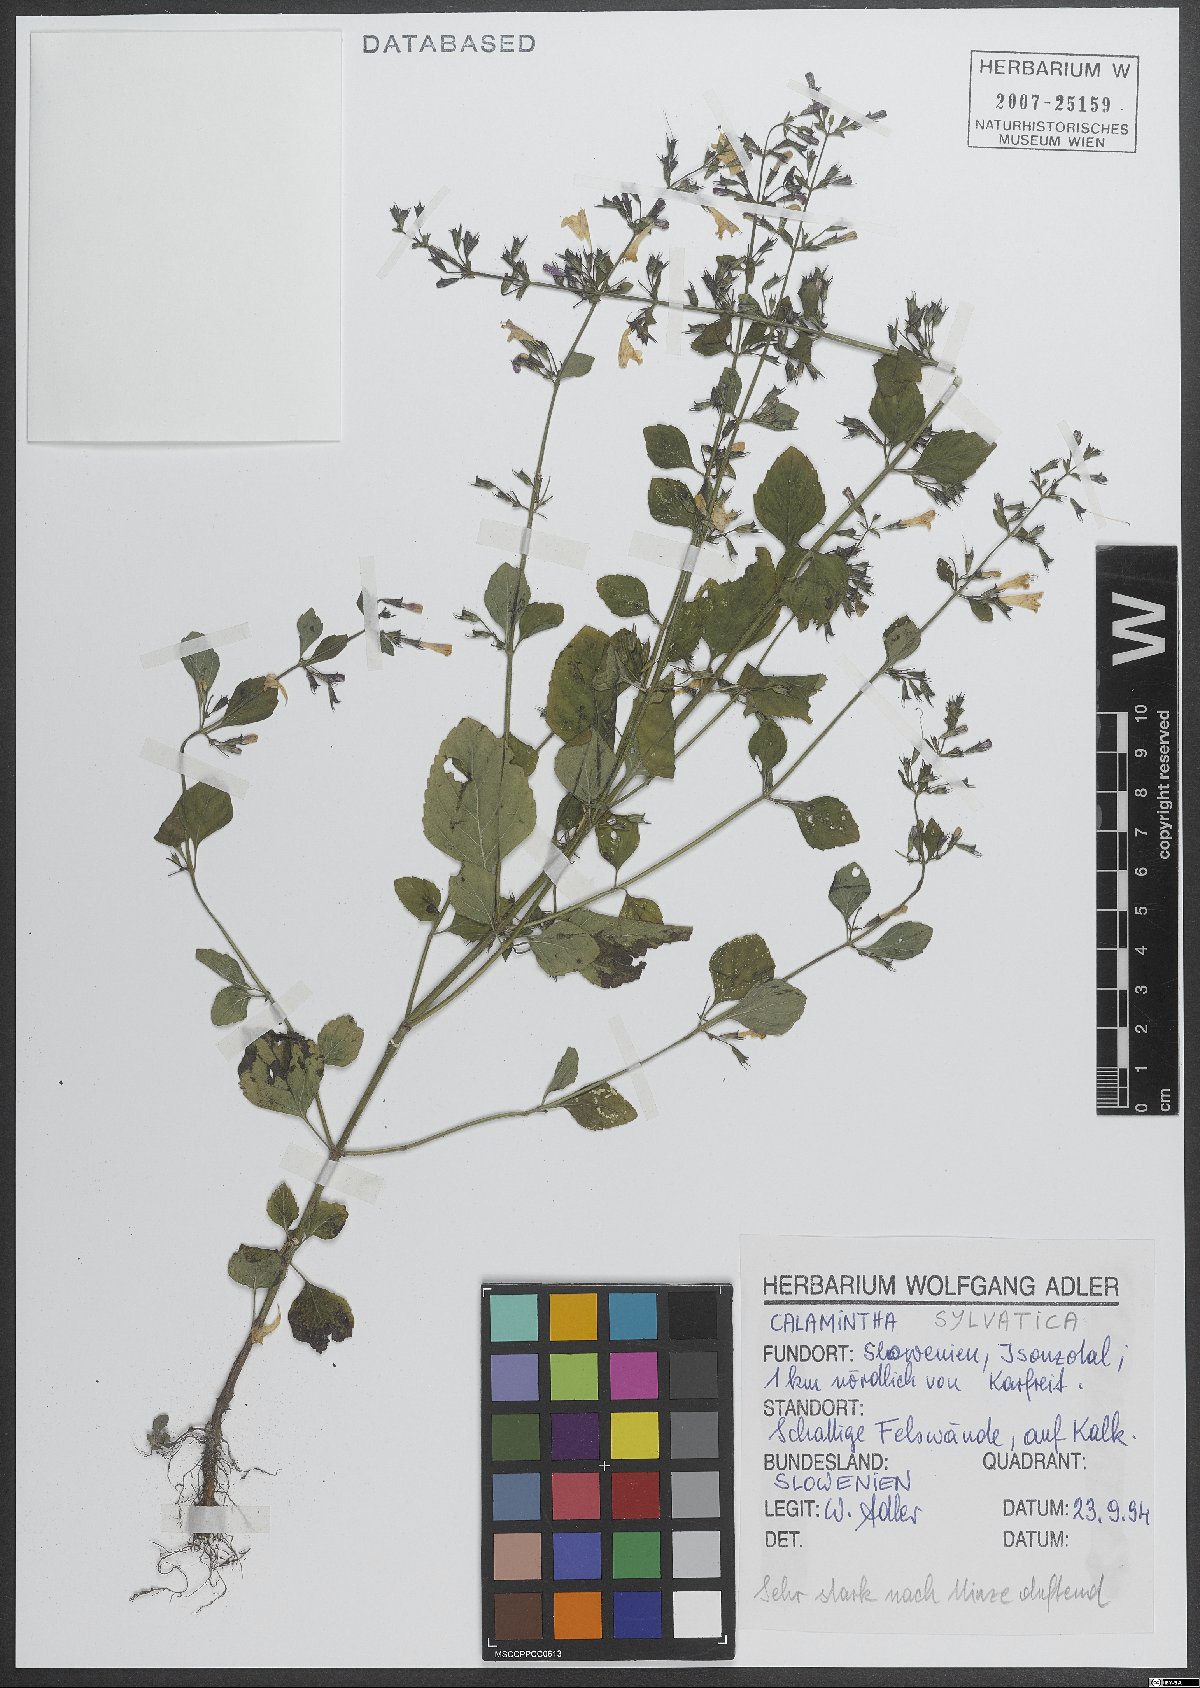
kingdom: Plantae
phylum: Tracheophyta
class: Magnoliopsida
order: Lamiales
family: Lamiaceae
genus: Clinopodium
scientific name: Clinopodium menthifolium
